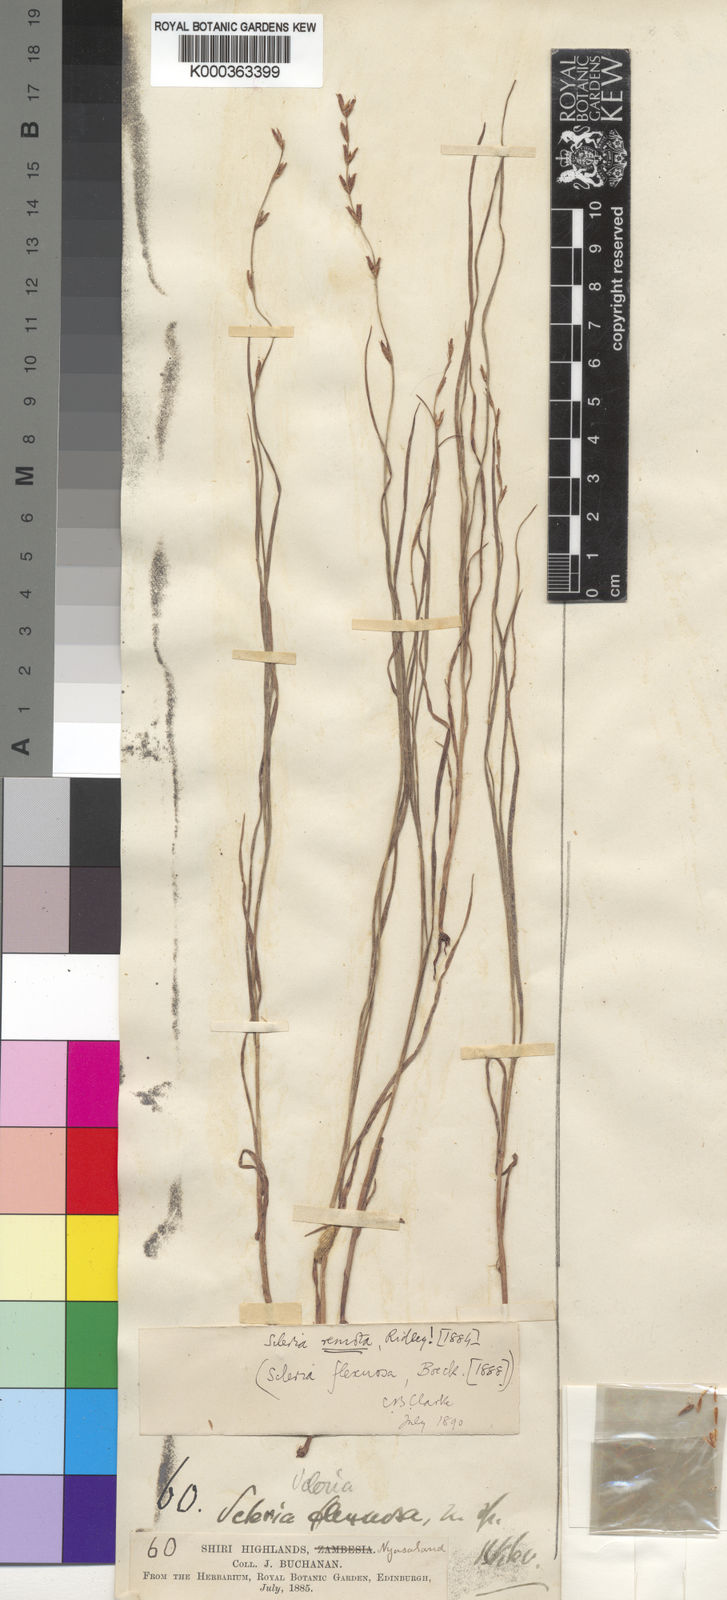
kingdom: Plantae
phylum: Tracheophyta
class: Liliopsida
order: Poales
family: Cyperaceae
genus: Scleria
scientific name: Scleria flexuosa
